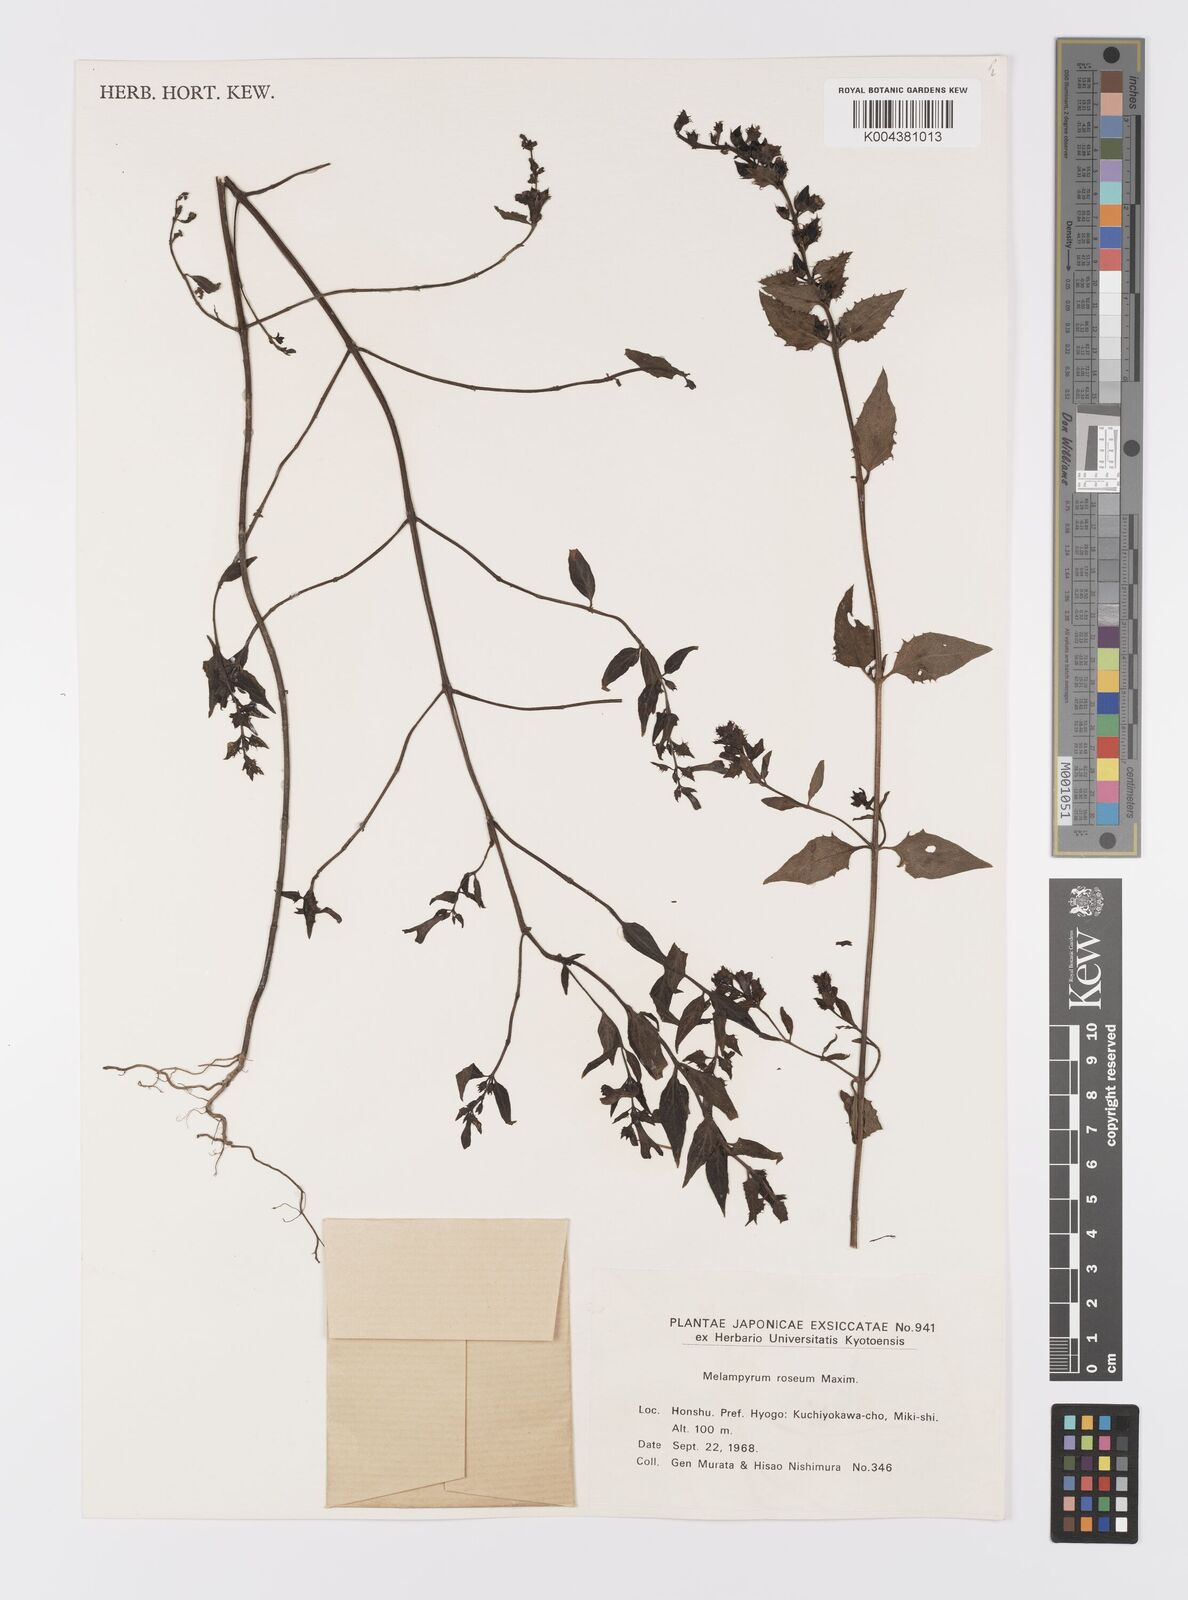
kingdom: Plantae
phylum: Tracheophyta
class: Magnoliopsida
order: Lamiales
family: Orobanchaceae
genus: Melampyrum
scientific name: Melampyrum roseum
